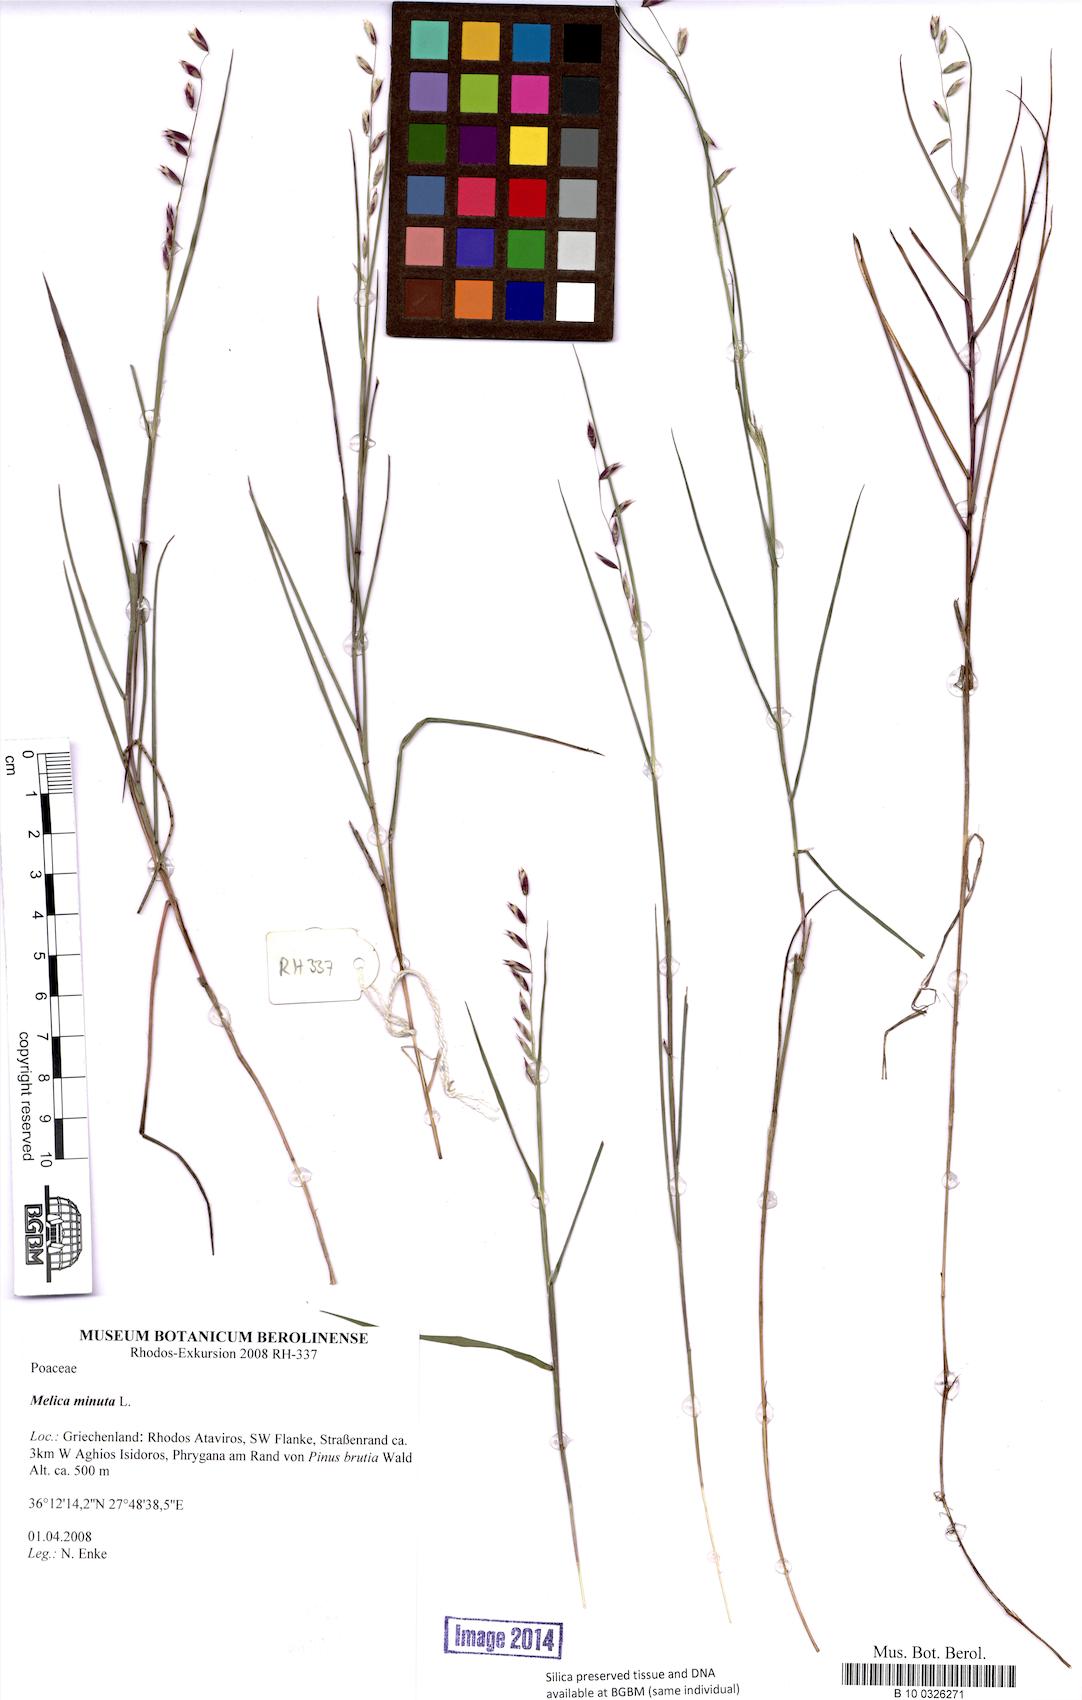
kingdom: Plantae
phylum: Tracheophyta
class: Liliopsida
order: Poales
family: Poaceae
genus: Melica
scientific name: Melica minuta
